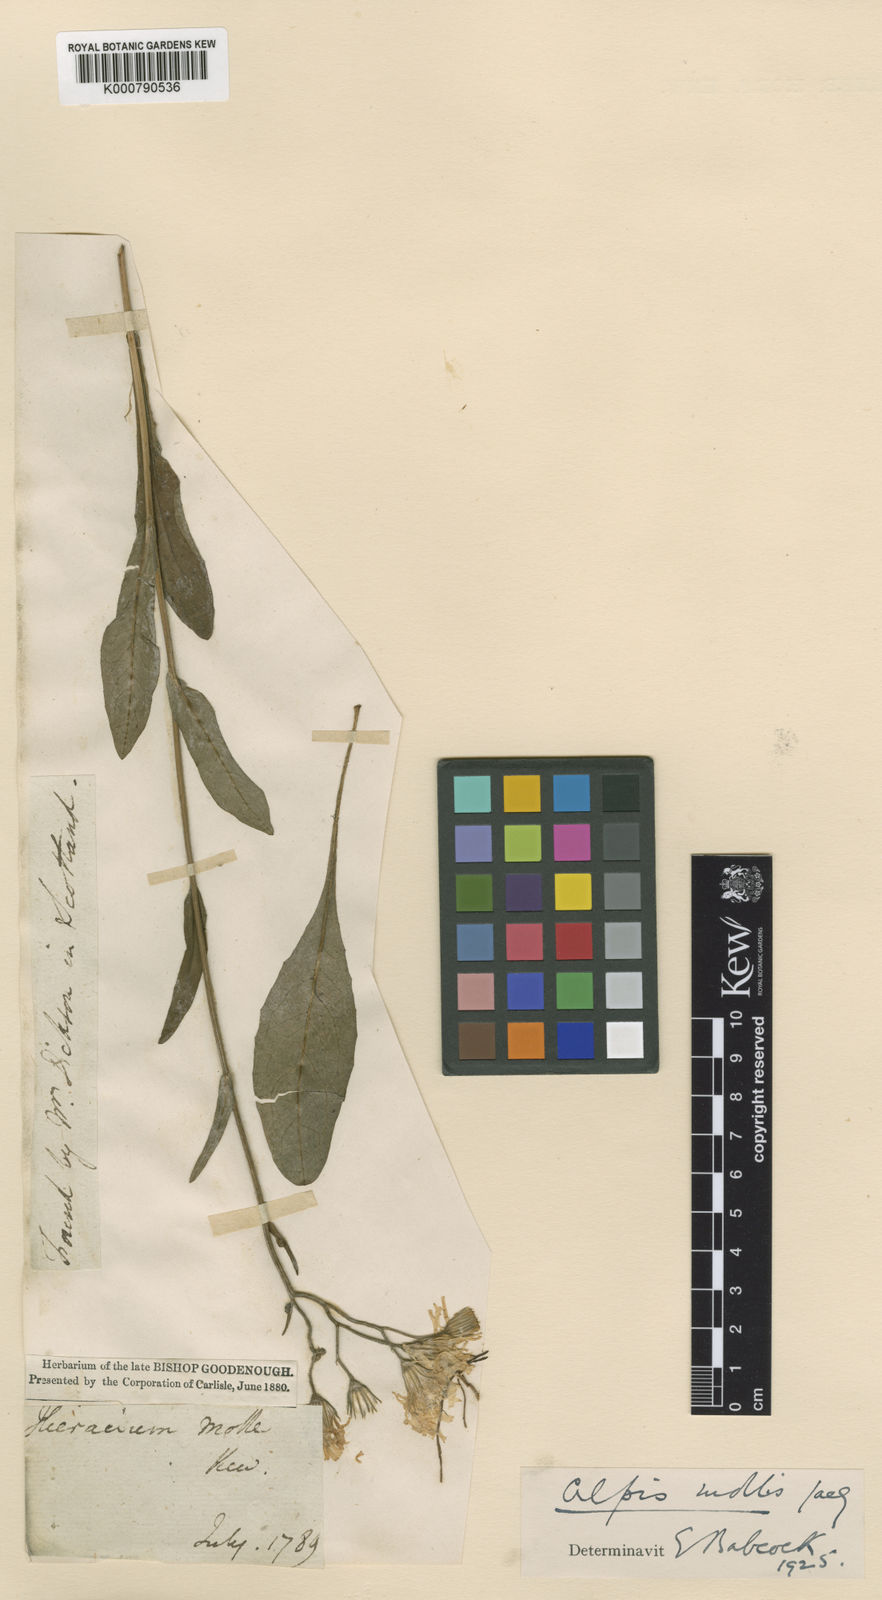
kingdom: Plantae
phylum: Tracheophyta
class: Magnoliopsida
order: Asterales
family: Asteraceae
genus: Crepis
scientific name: Crepis mollis
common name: Northern hawk's-beard
